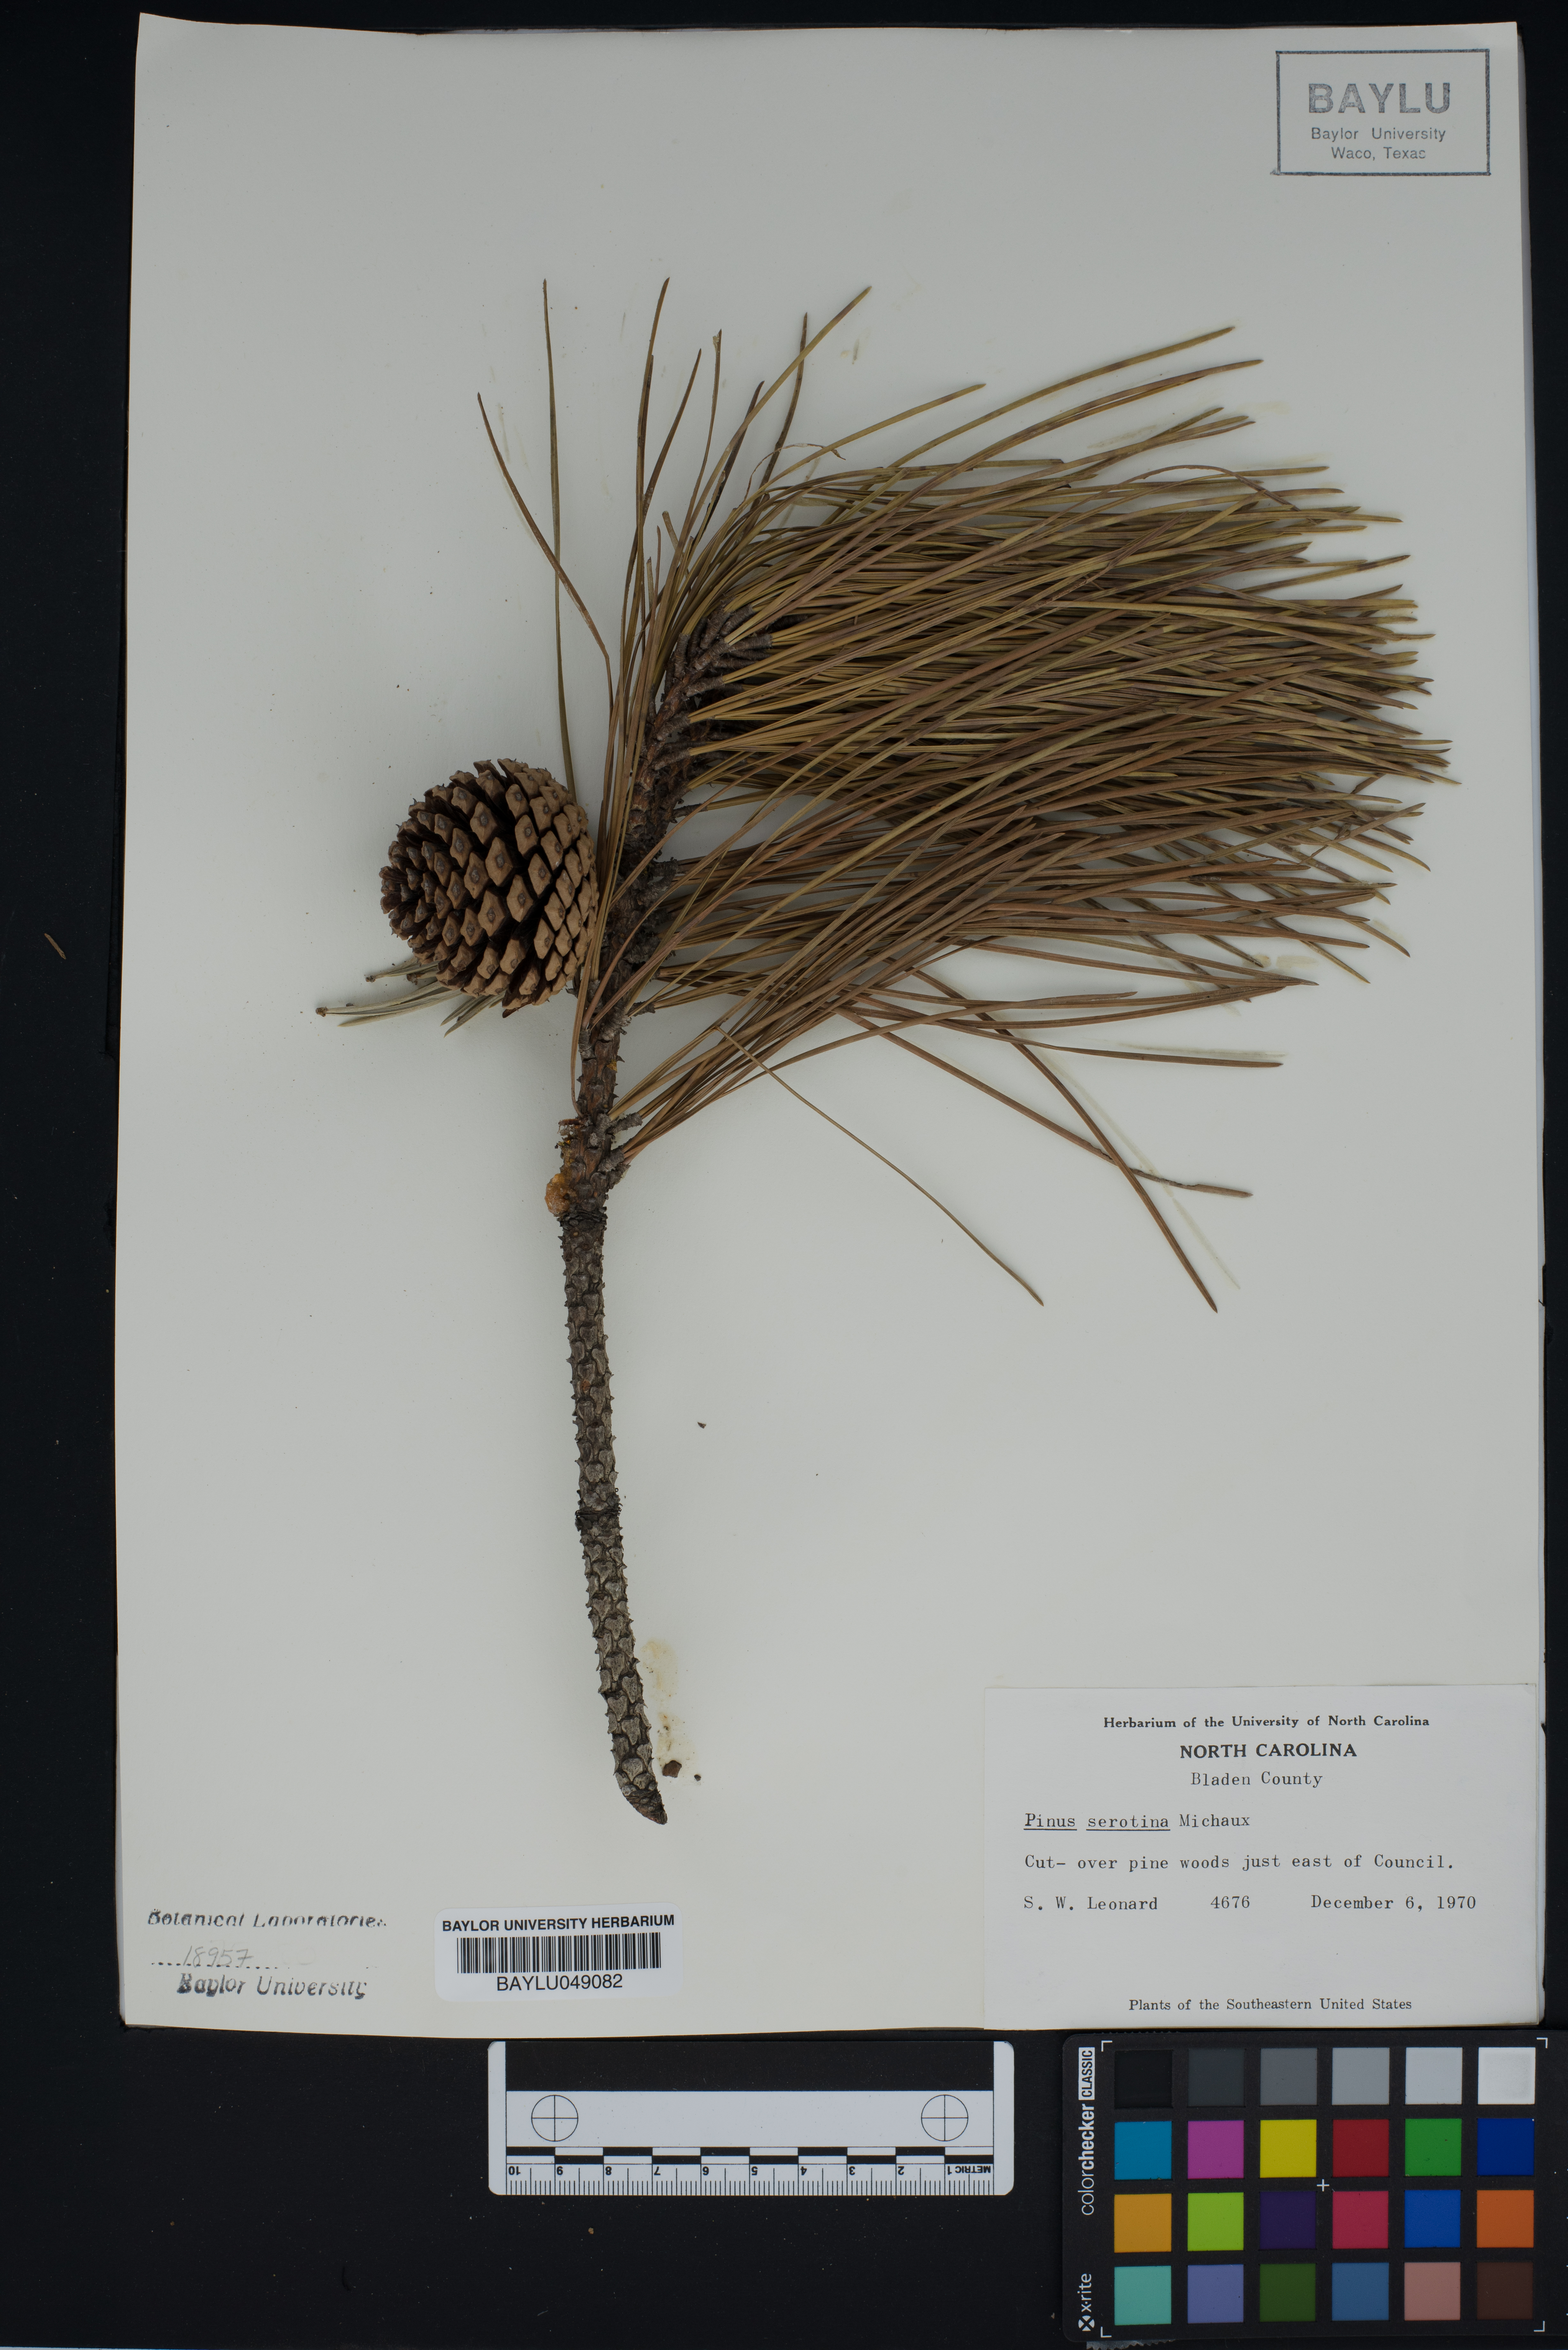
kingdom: Plantae
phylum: Tracheophyta
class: Pinopsida
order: Pinales
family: Pinaceae
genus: Pinus
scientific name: Pinus serotina
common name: Marsh pine
